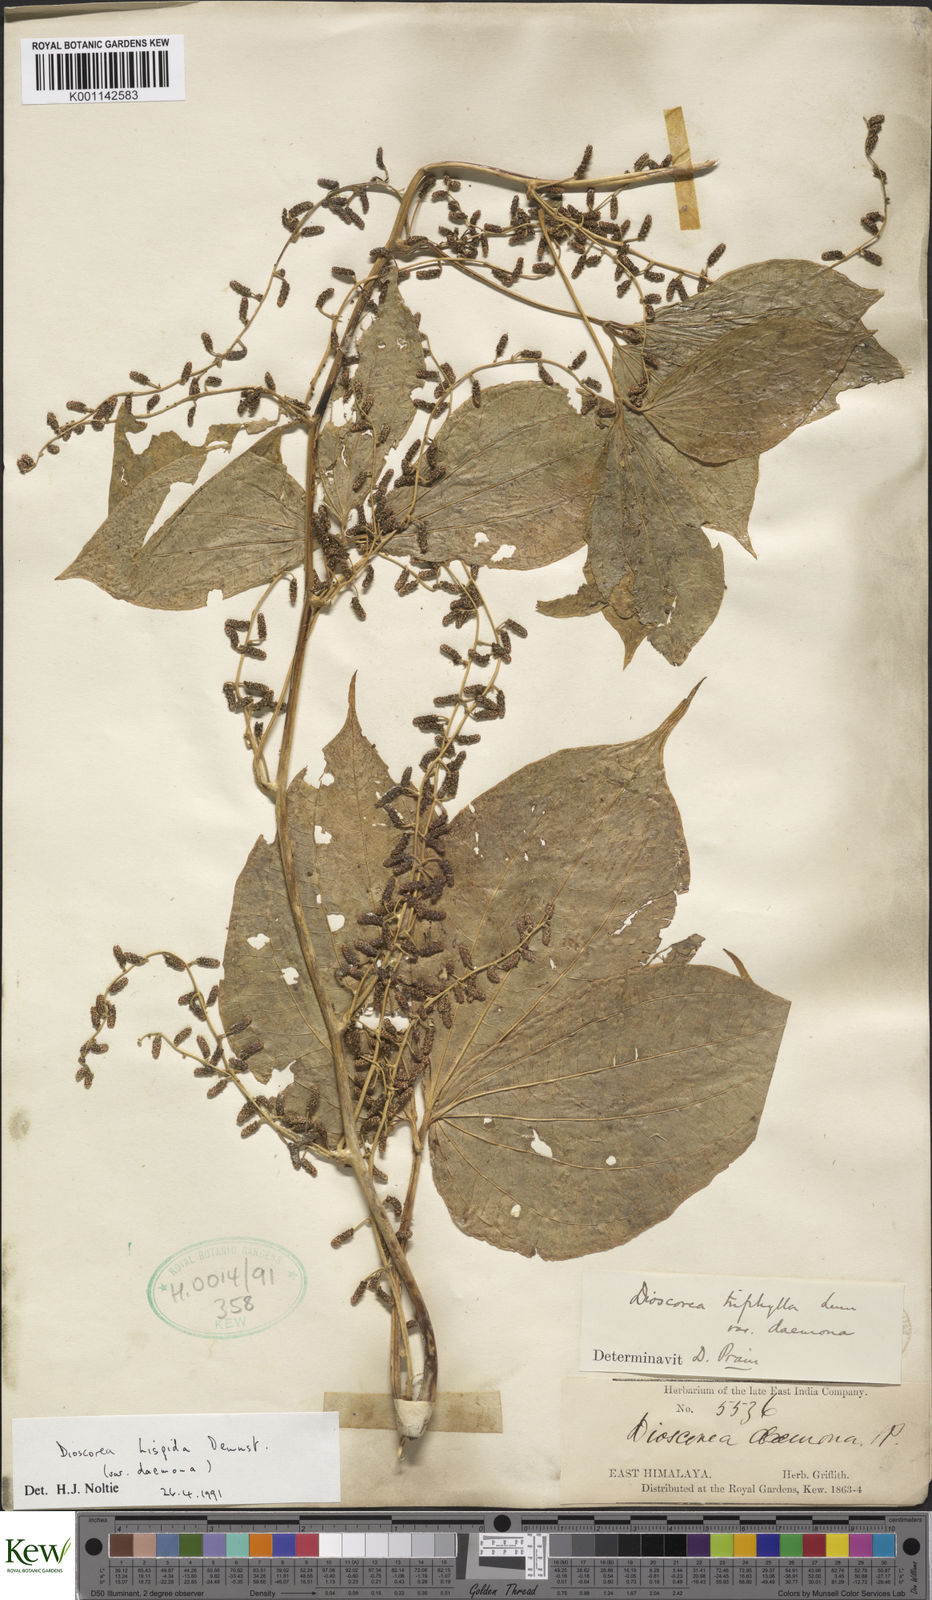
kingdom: Plantae
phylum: Tracheophyta
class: Liliopsida
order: Dioscoreales
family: Dioscoreaceae
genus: Dioscorea
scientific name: Dioscorea pentaphylla
